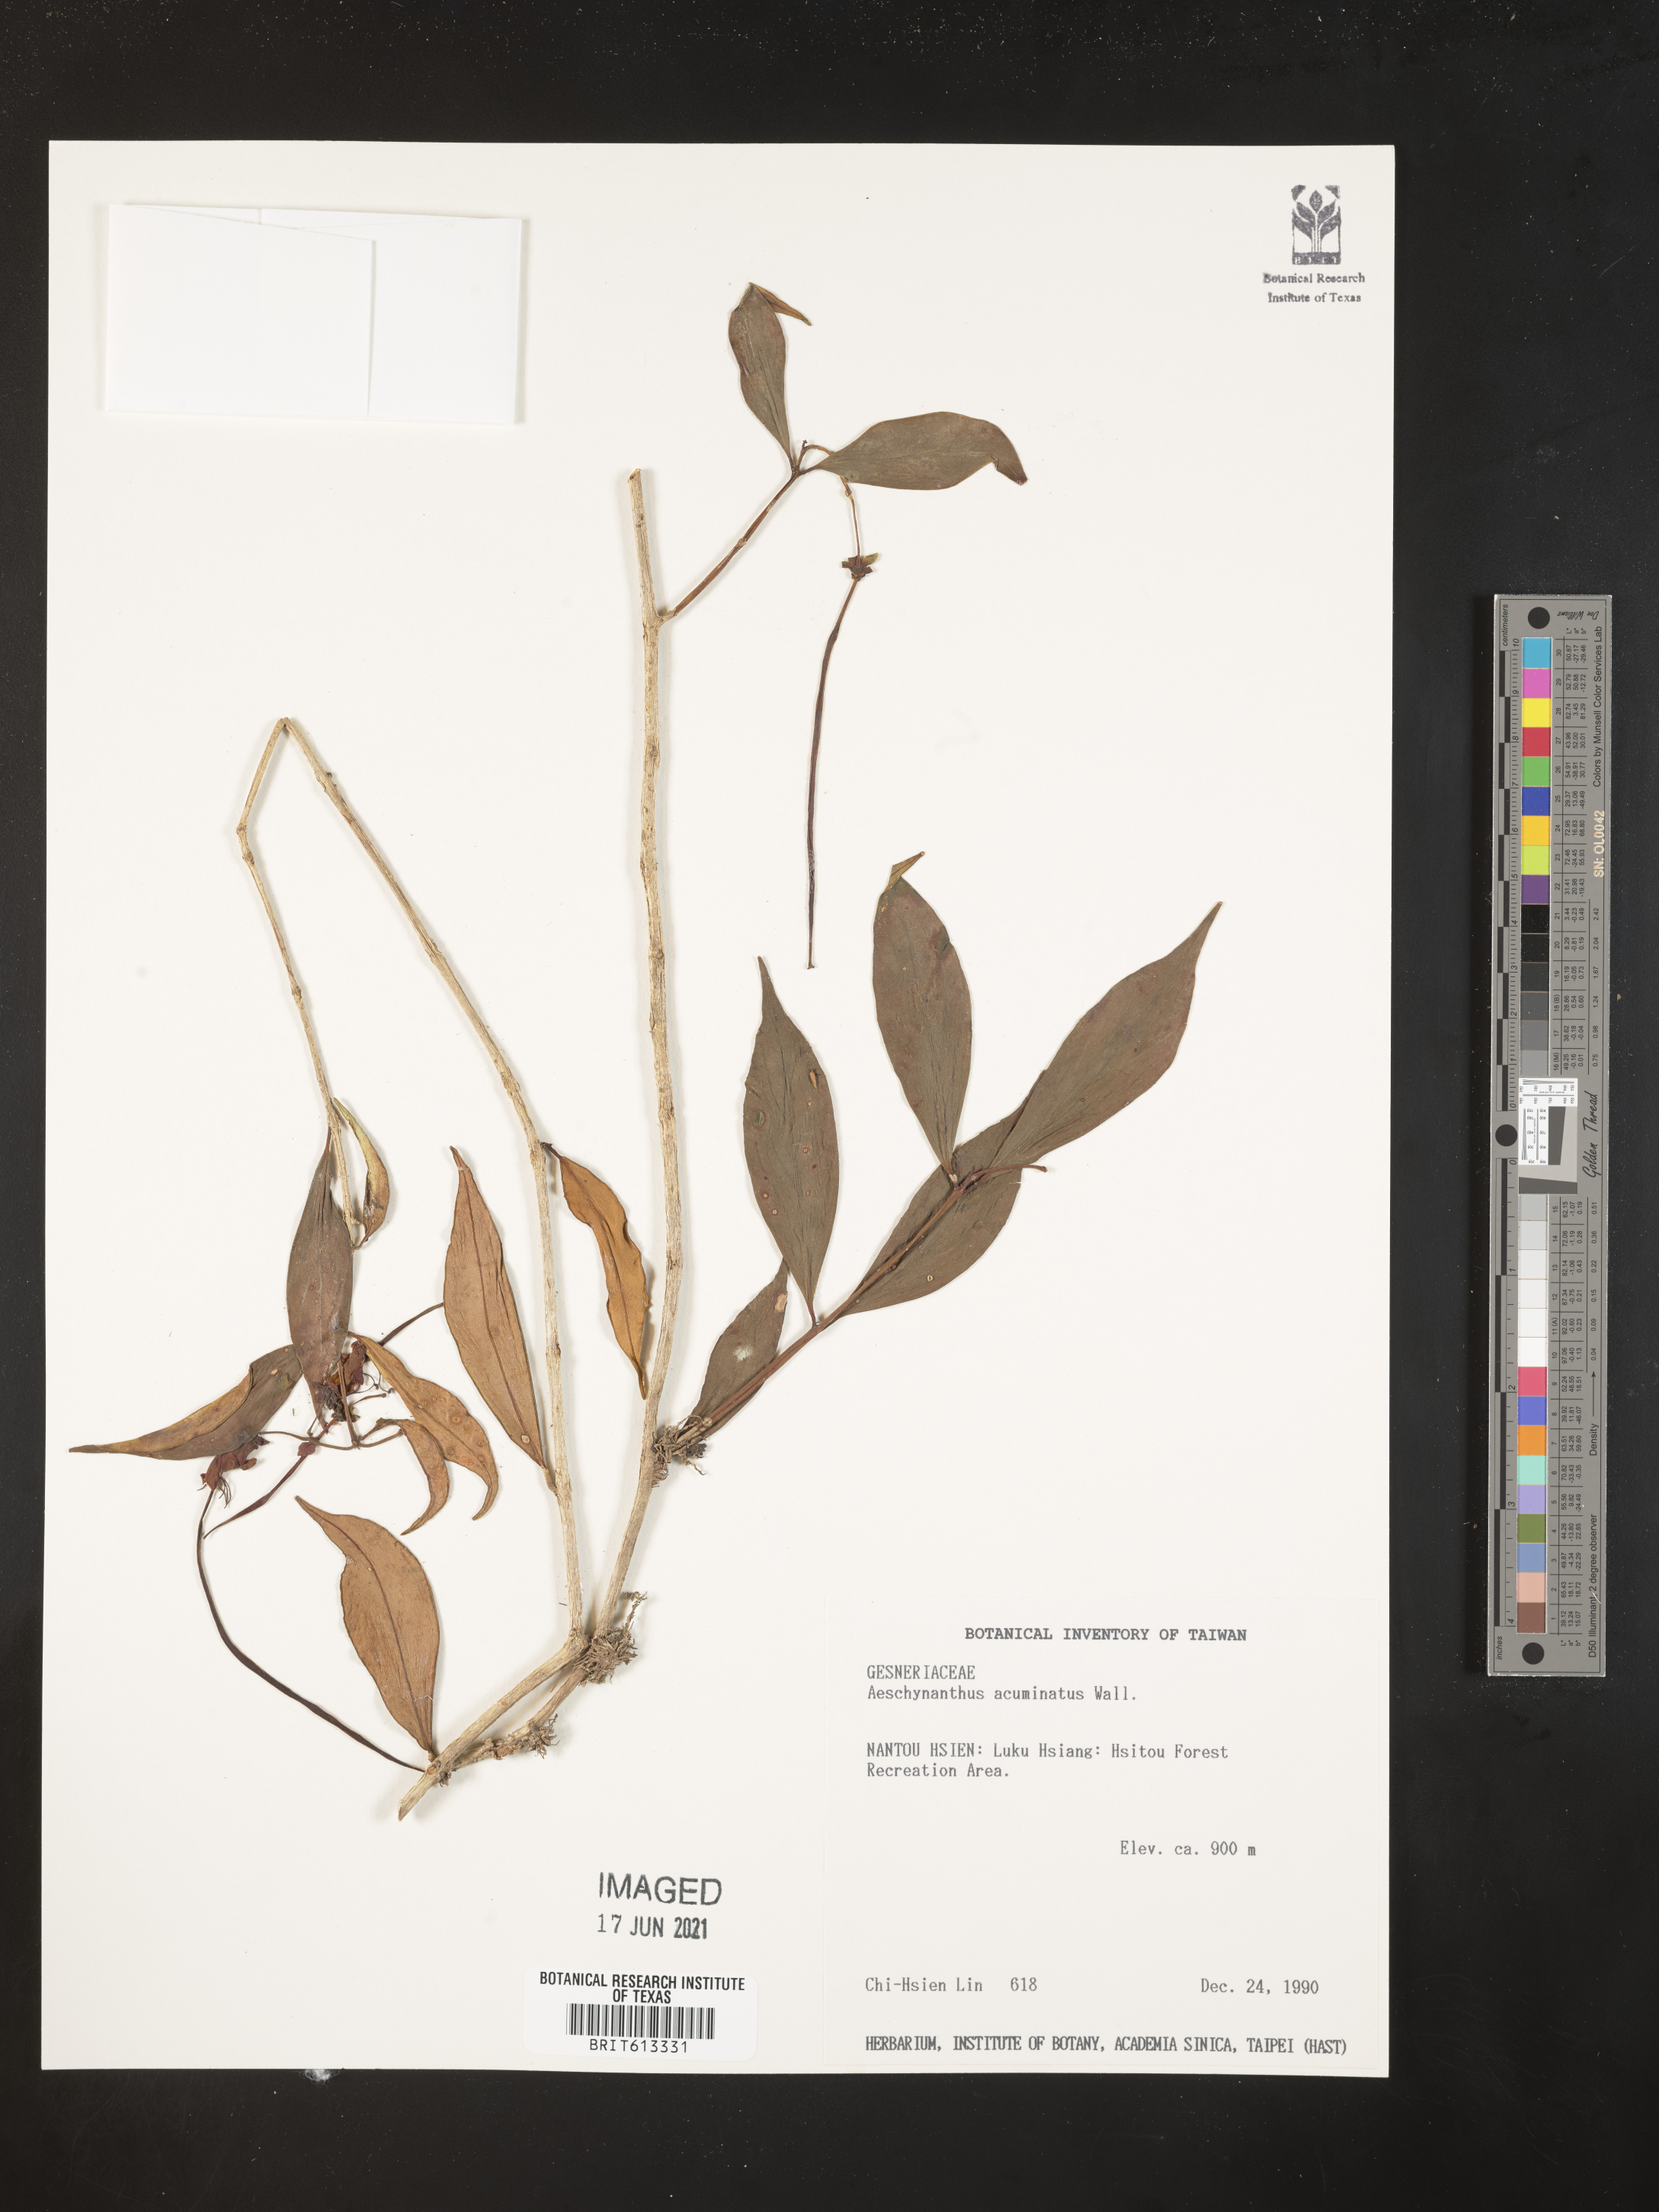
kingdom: Plantae
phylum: Tracheophyta
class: Magnoliopsida
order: Lamiales
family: Gesneriaceae
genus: Aeschynanthus
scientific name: Aeschynanthus acuminatus
